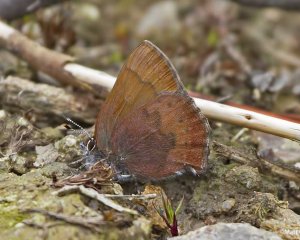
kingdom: Animalia
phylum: Arthropoda
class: Insecta
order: Lepidoptera
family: Lycaenidae
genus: Incisalia
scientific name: Incisalia irioides
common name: Brown Elfin
